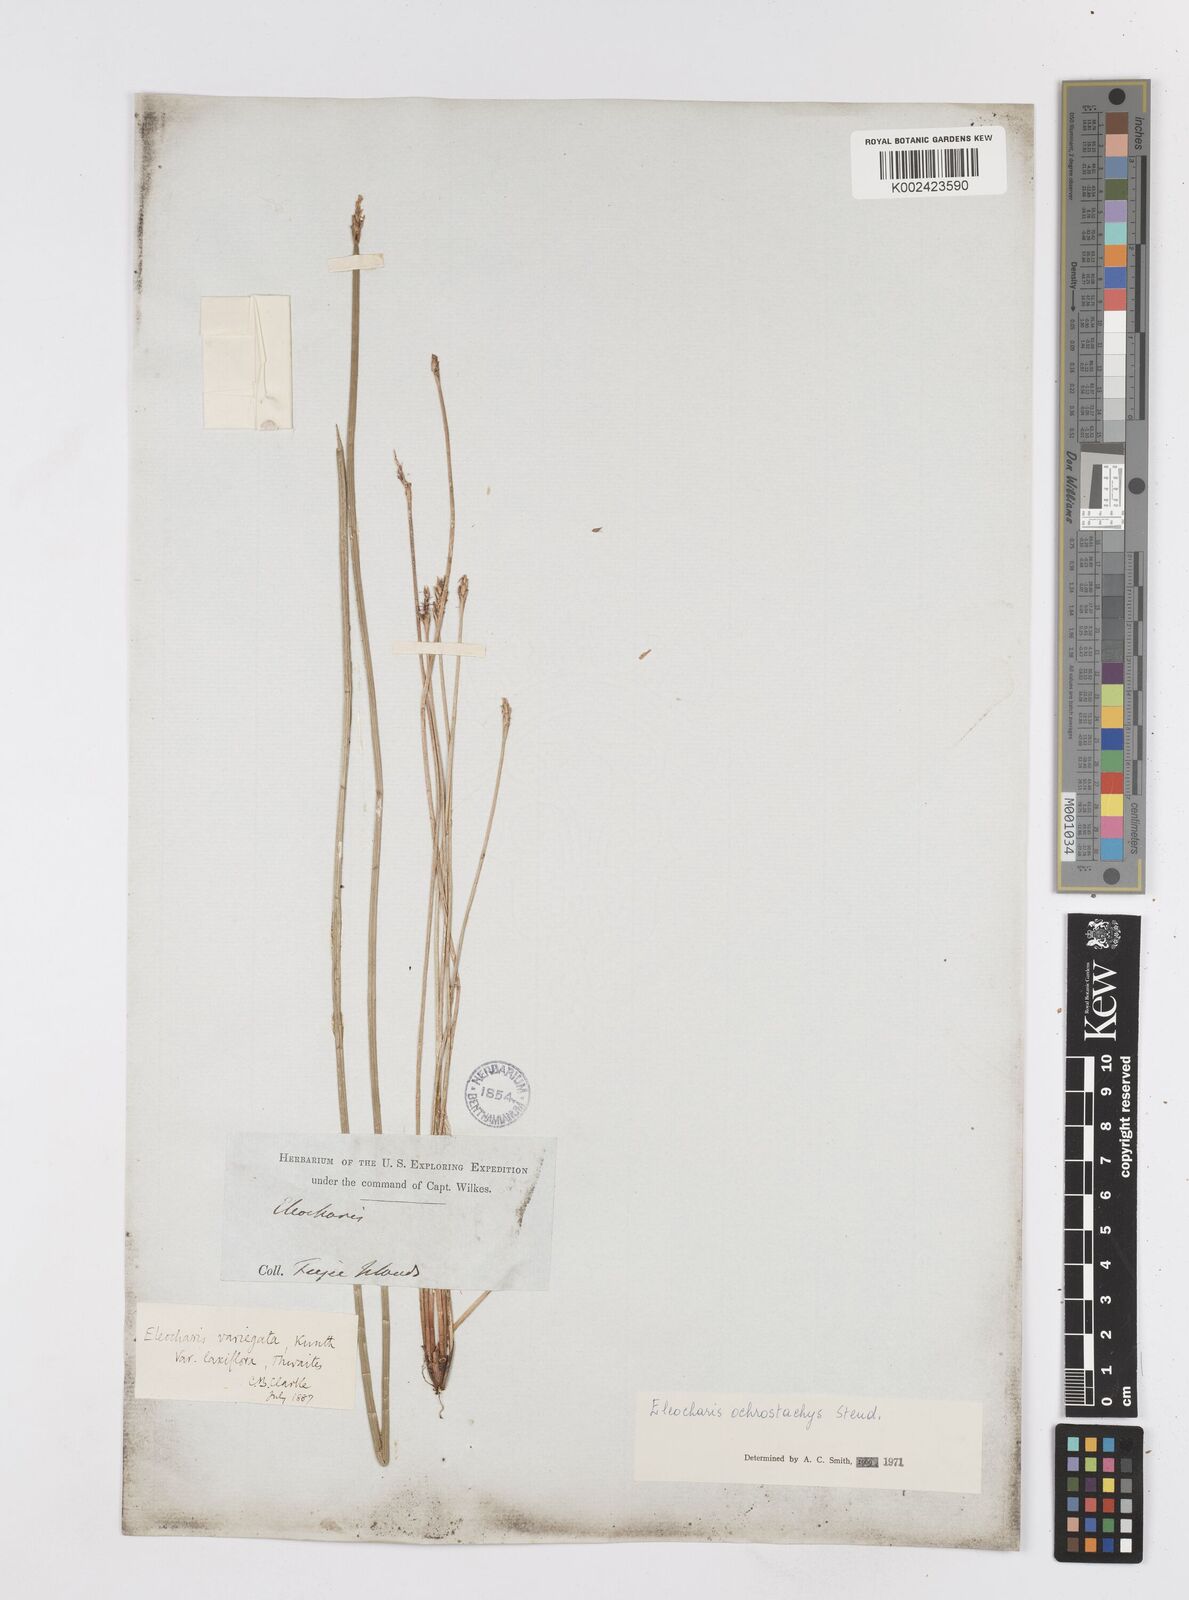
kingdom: Plantae
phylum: Tracheophyta
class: Liliopsida
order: Poales
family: Cyperaceae
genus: Eleocharis
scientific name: Eleocharis ochrostachys
